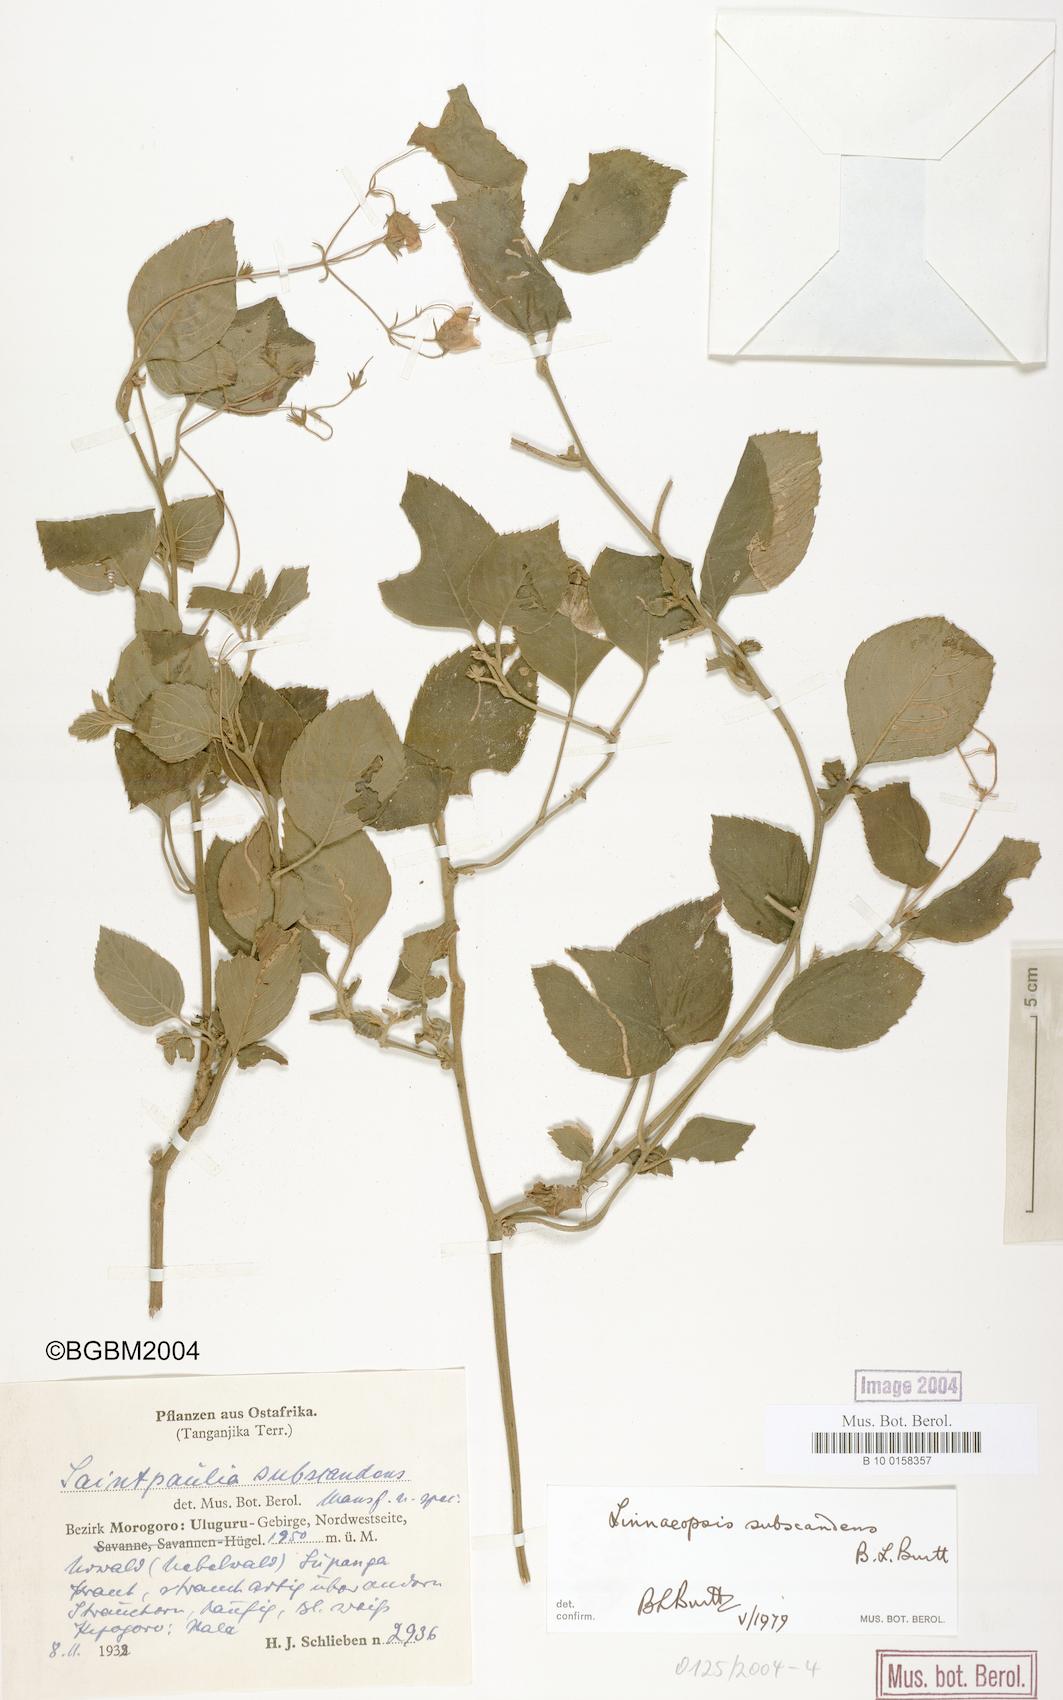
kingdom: Plantae
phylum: Tracheophyta
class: Magnoliopsida
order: Lamiales
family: Gesneriaceae
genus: Streptocarpus
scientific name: Streptocarpus subscandens
